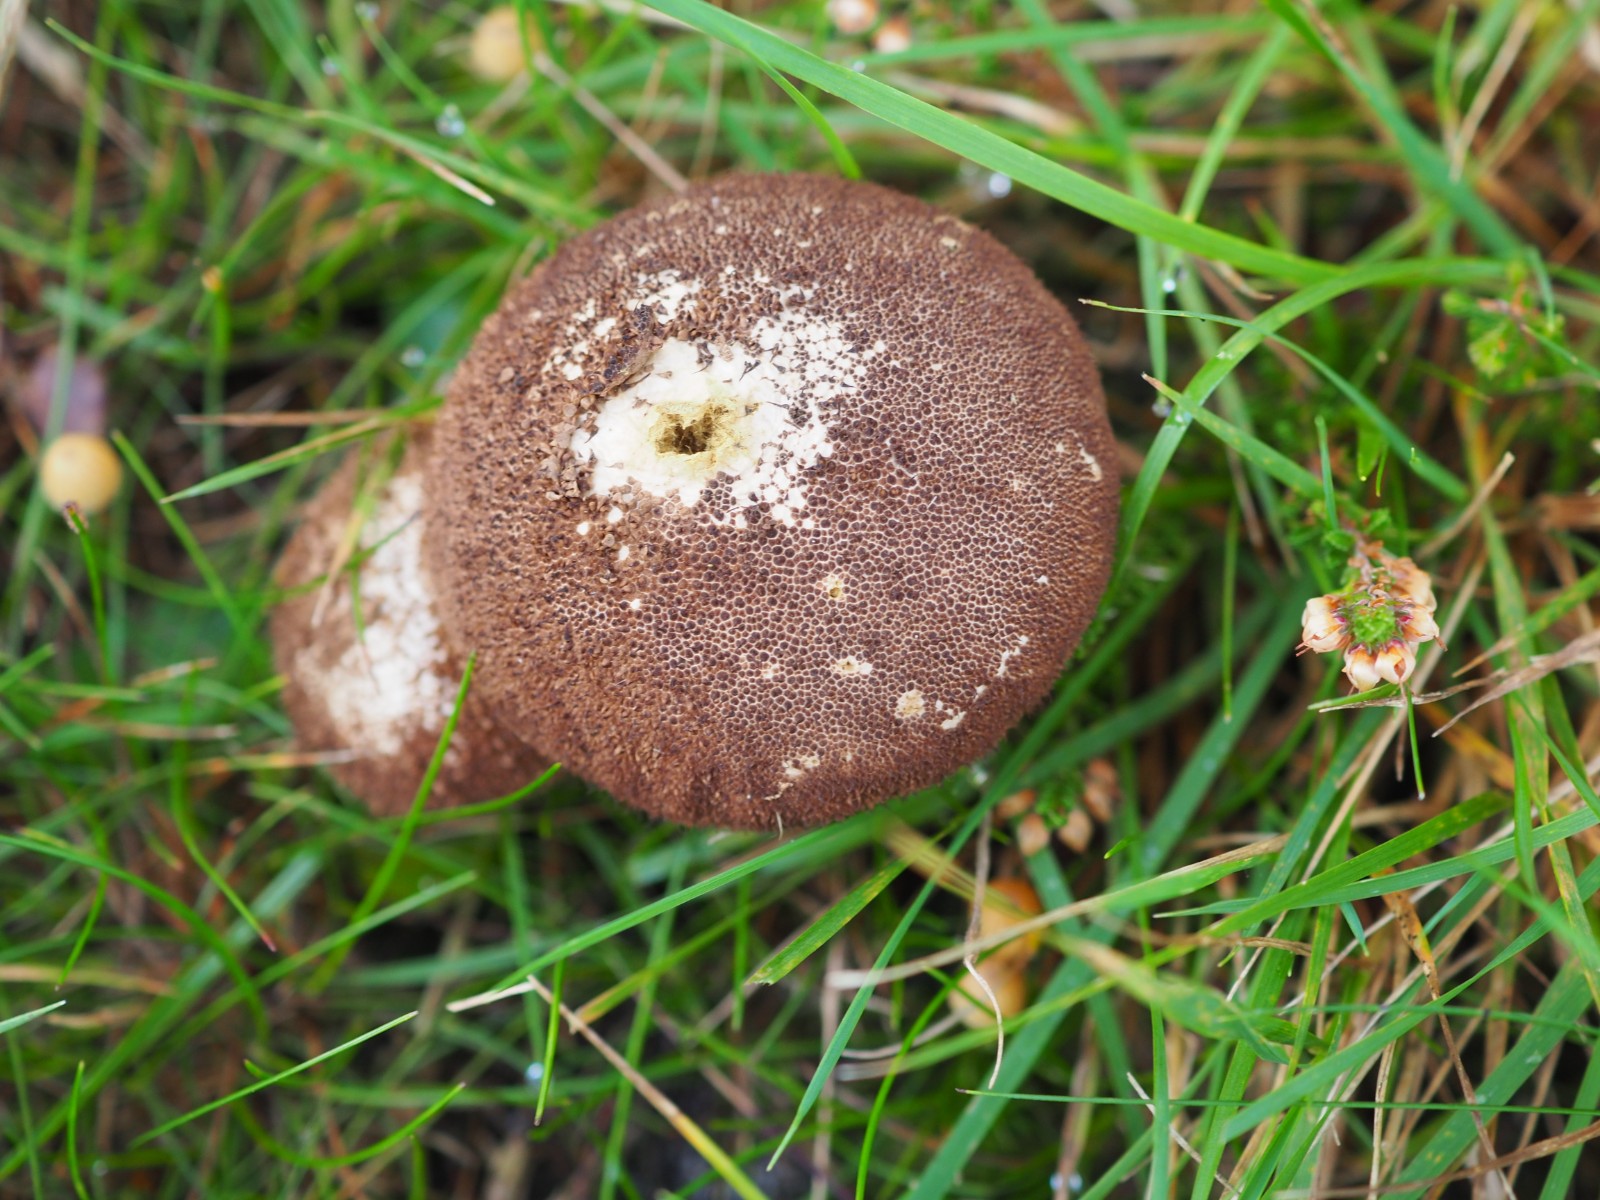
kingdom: Fungi
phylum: Basidiomycota
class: Agaricomycetes
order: Agaricales
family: Lycoperdaceae
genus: Lycoperdon
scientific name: Lycoperdon nigrescens
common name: sortagtig støvbold
